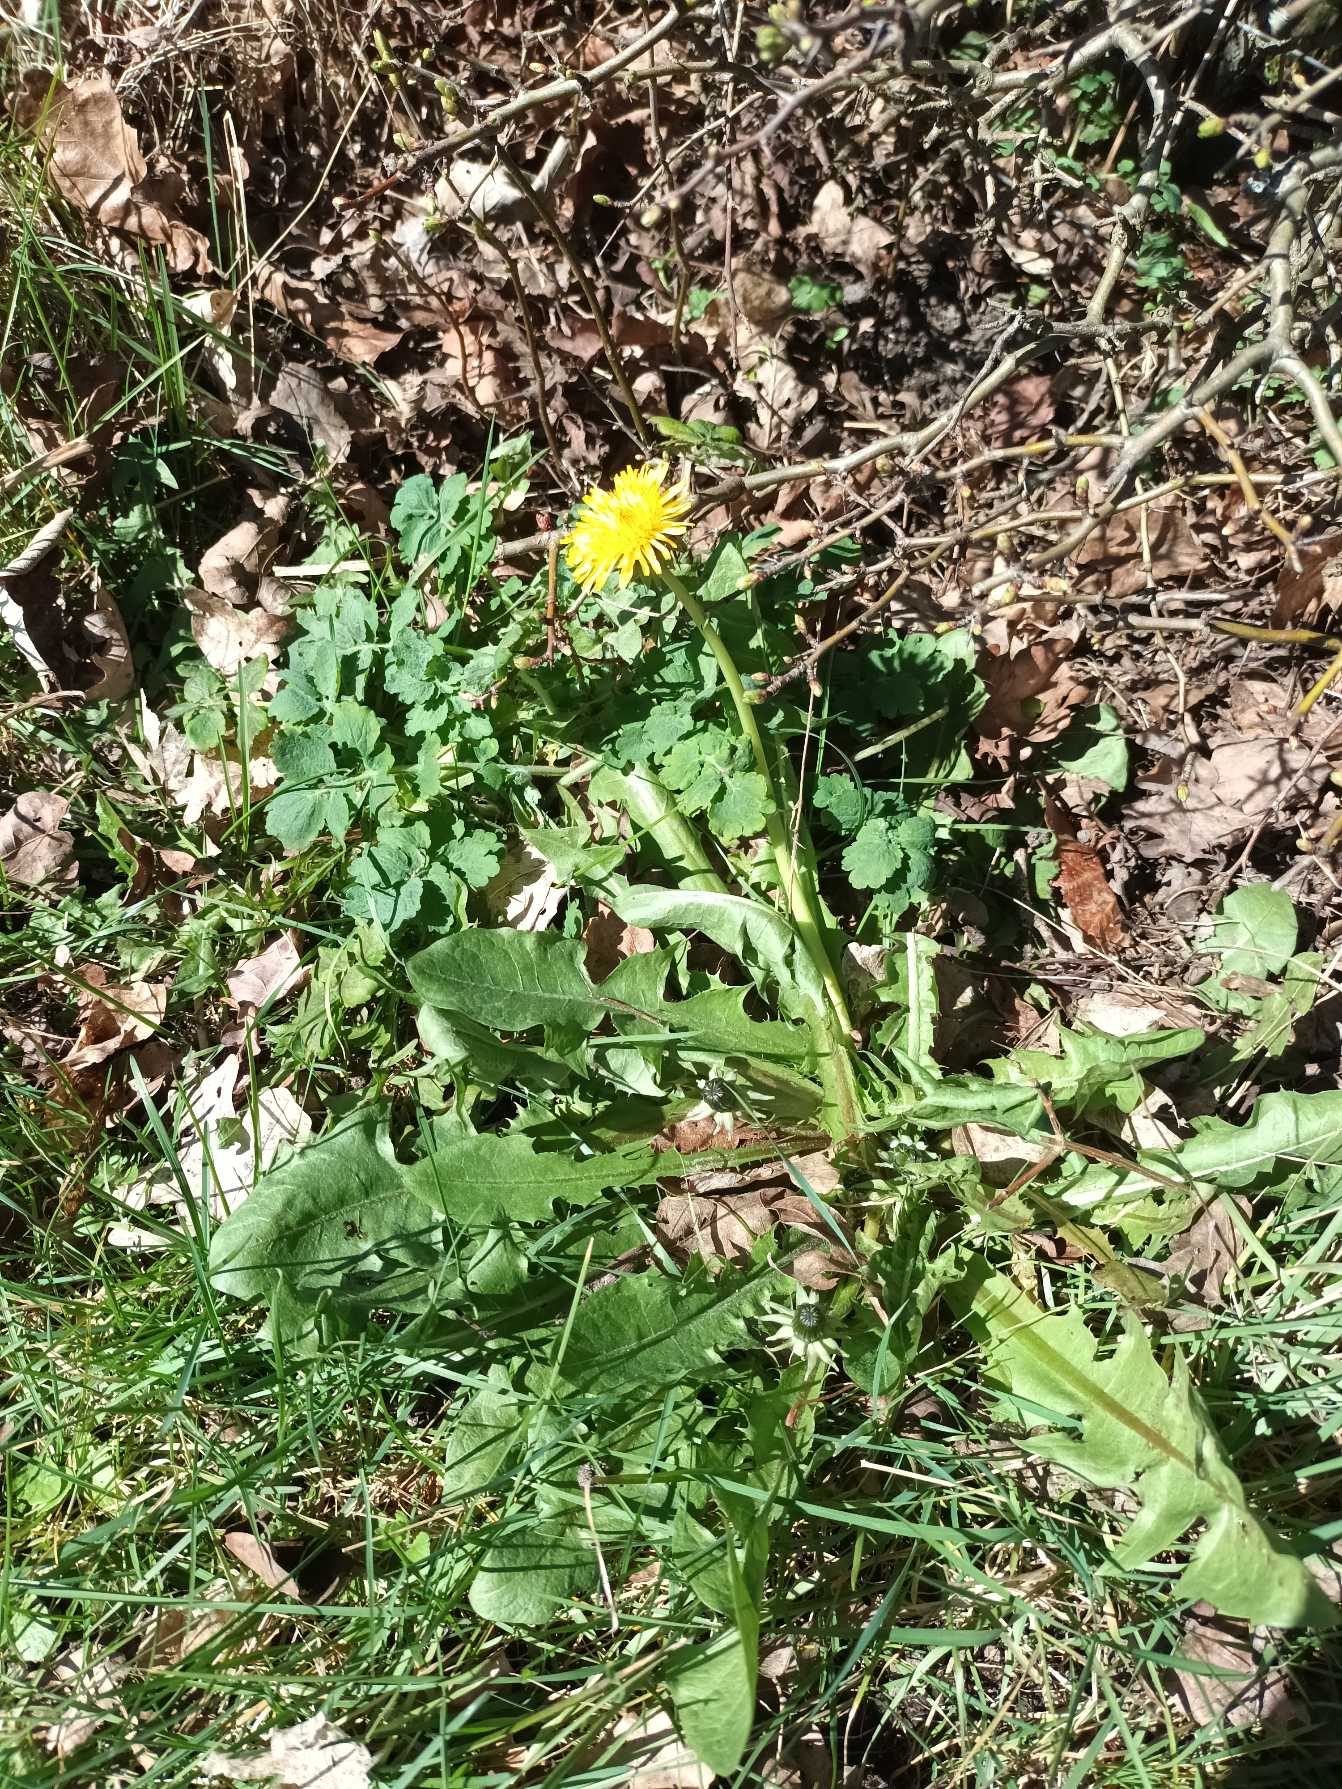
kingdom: Plantae
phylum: Tracheophyta
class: Magnoliopsida
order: Asterales
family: Asteraceae
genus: Taraxacum
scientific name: Taraxacum
